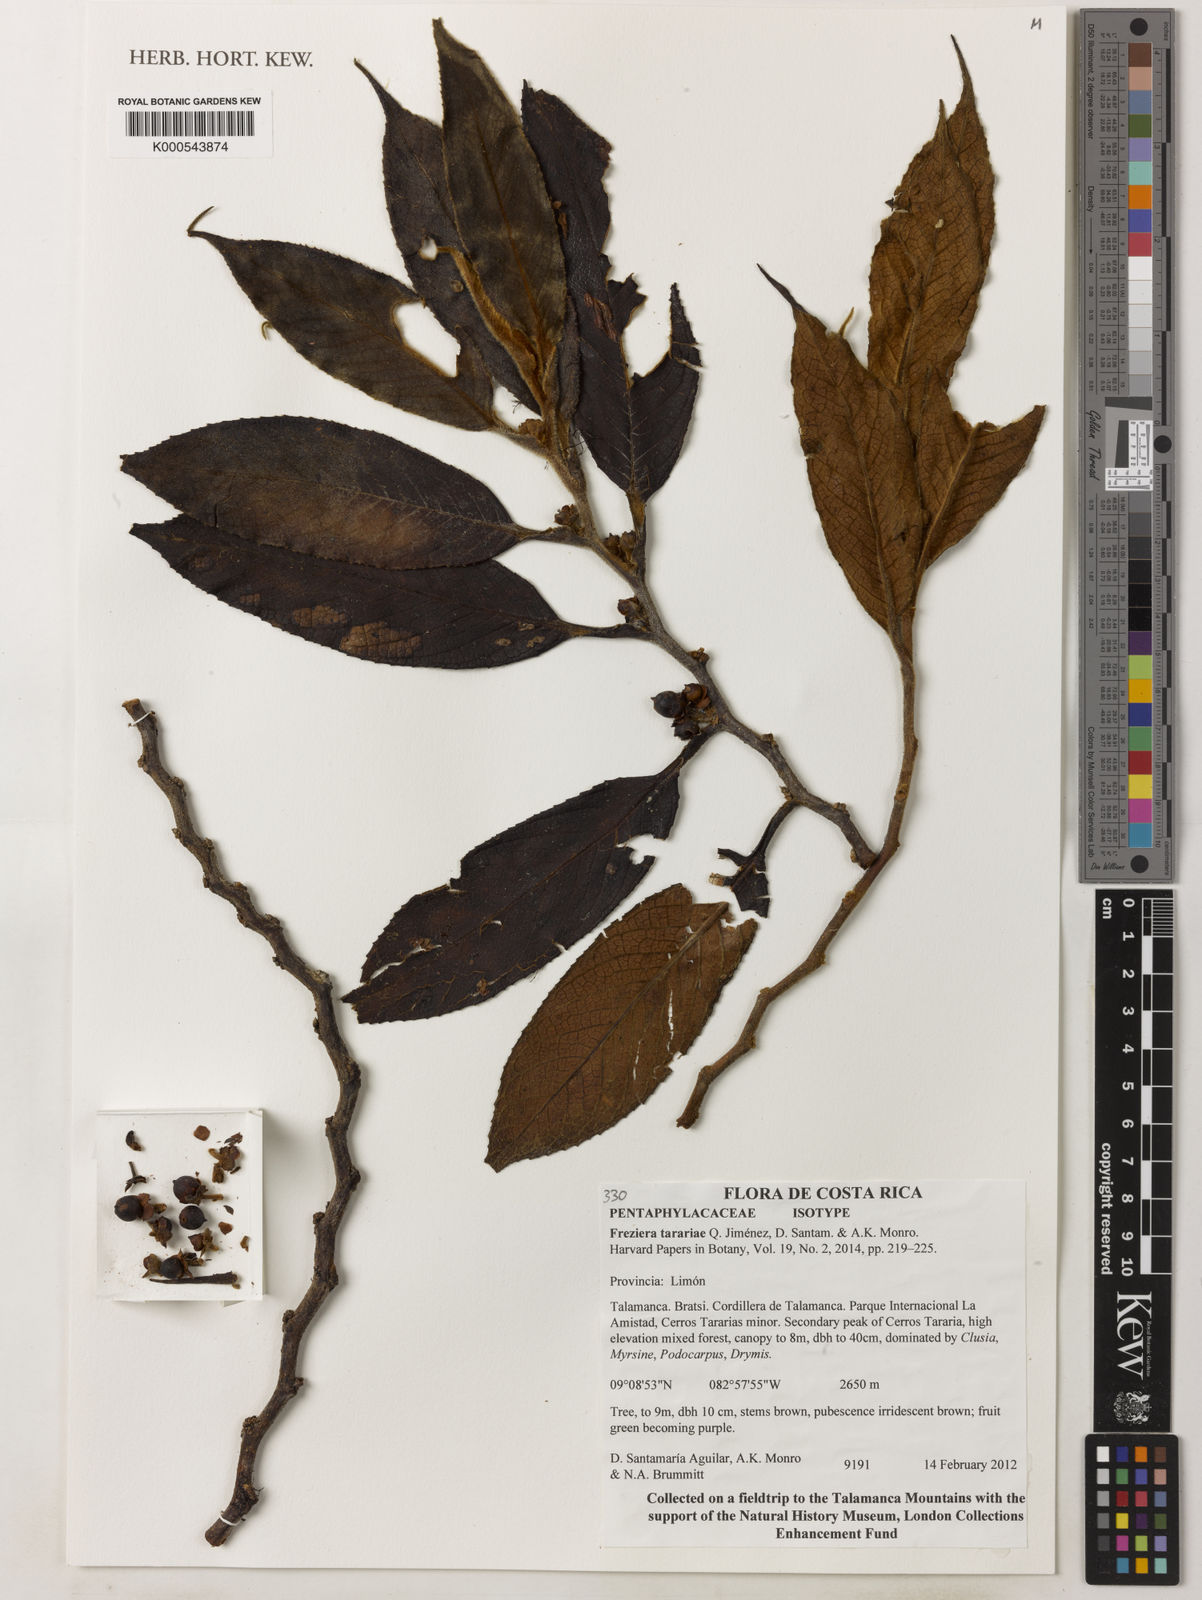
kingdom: Plantae
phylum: Tracheophyta
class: Magnoliopsida
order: Ericales
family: Pentaphylacaceae
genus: Freziera
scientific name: Freziera
